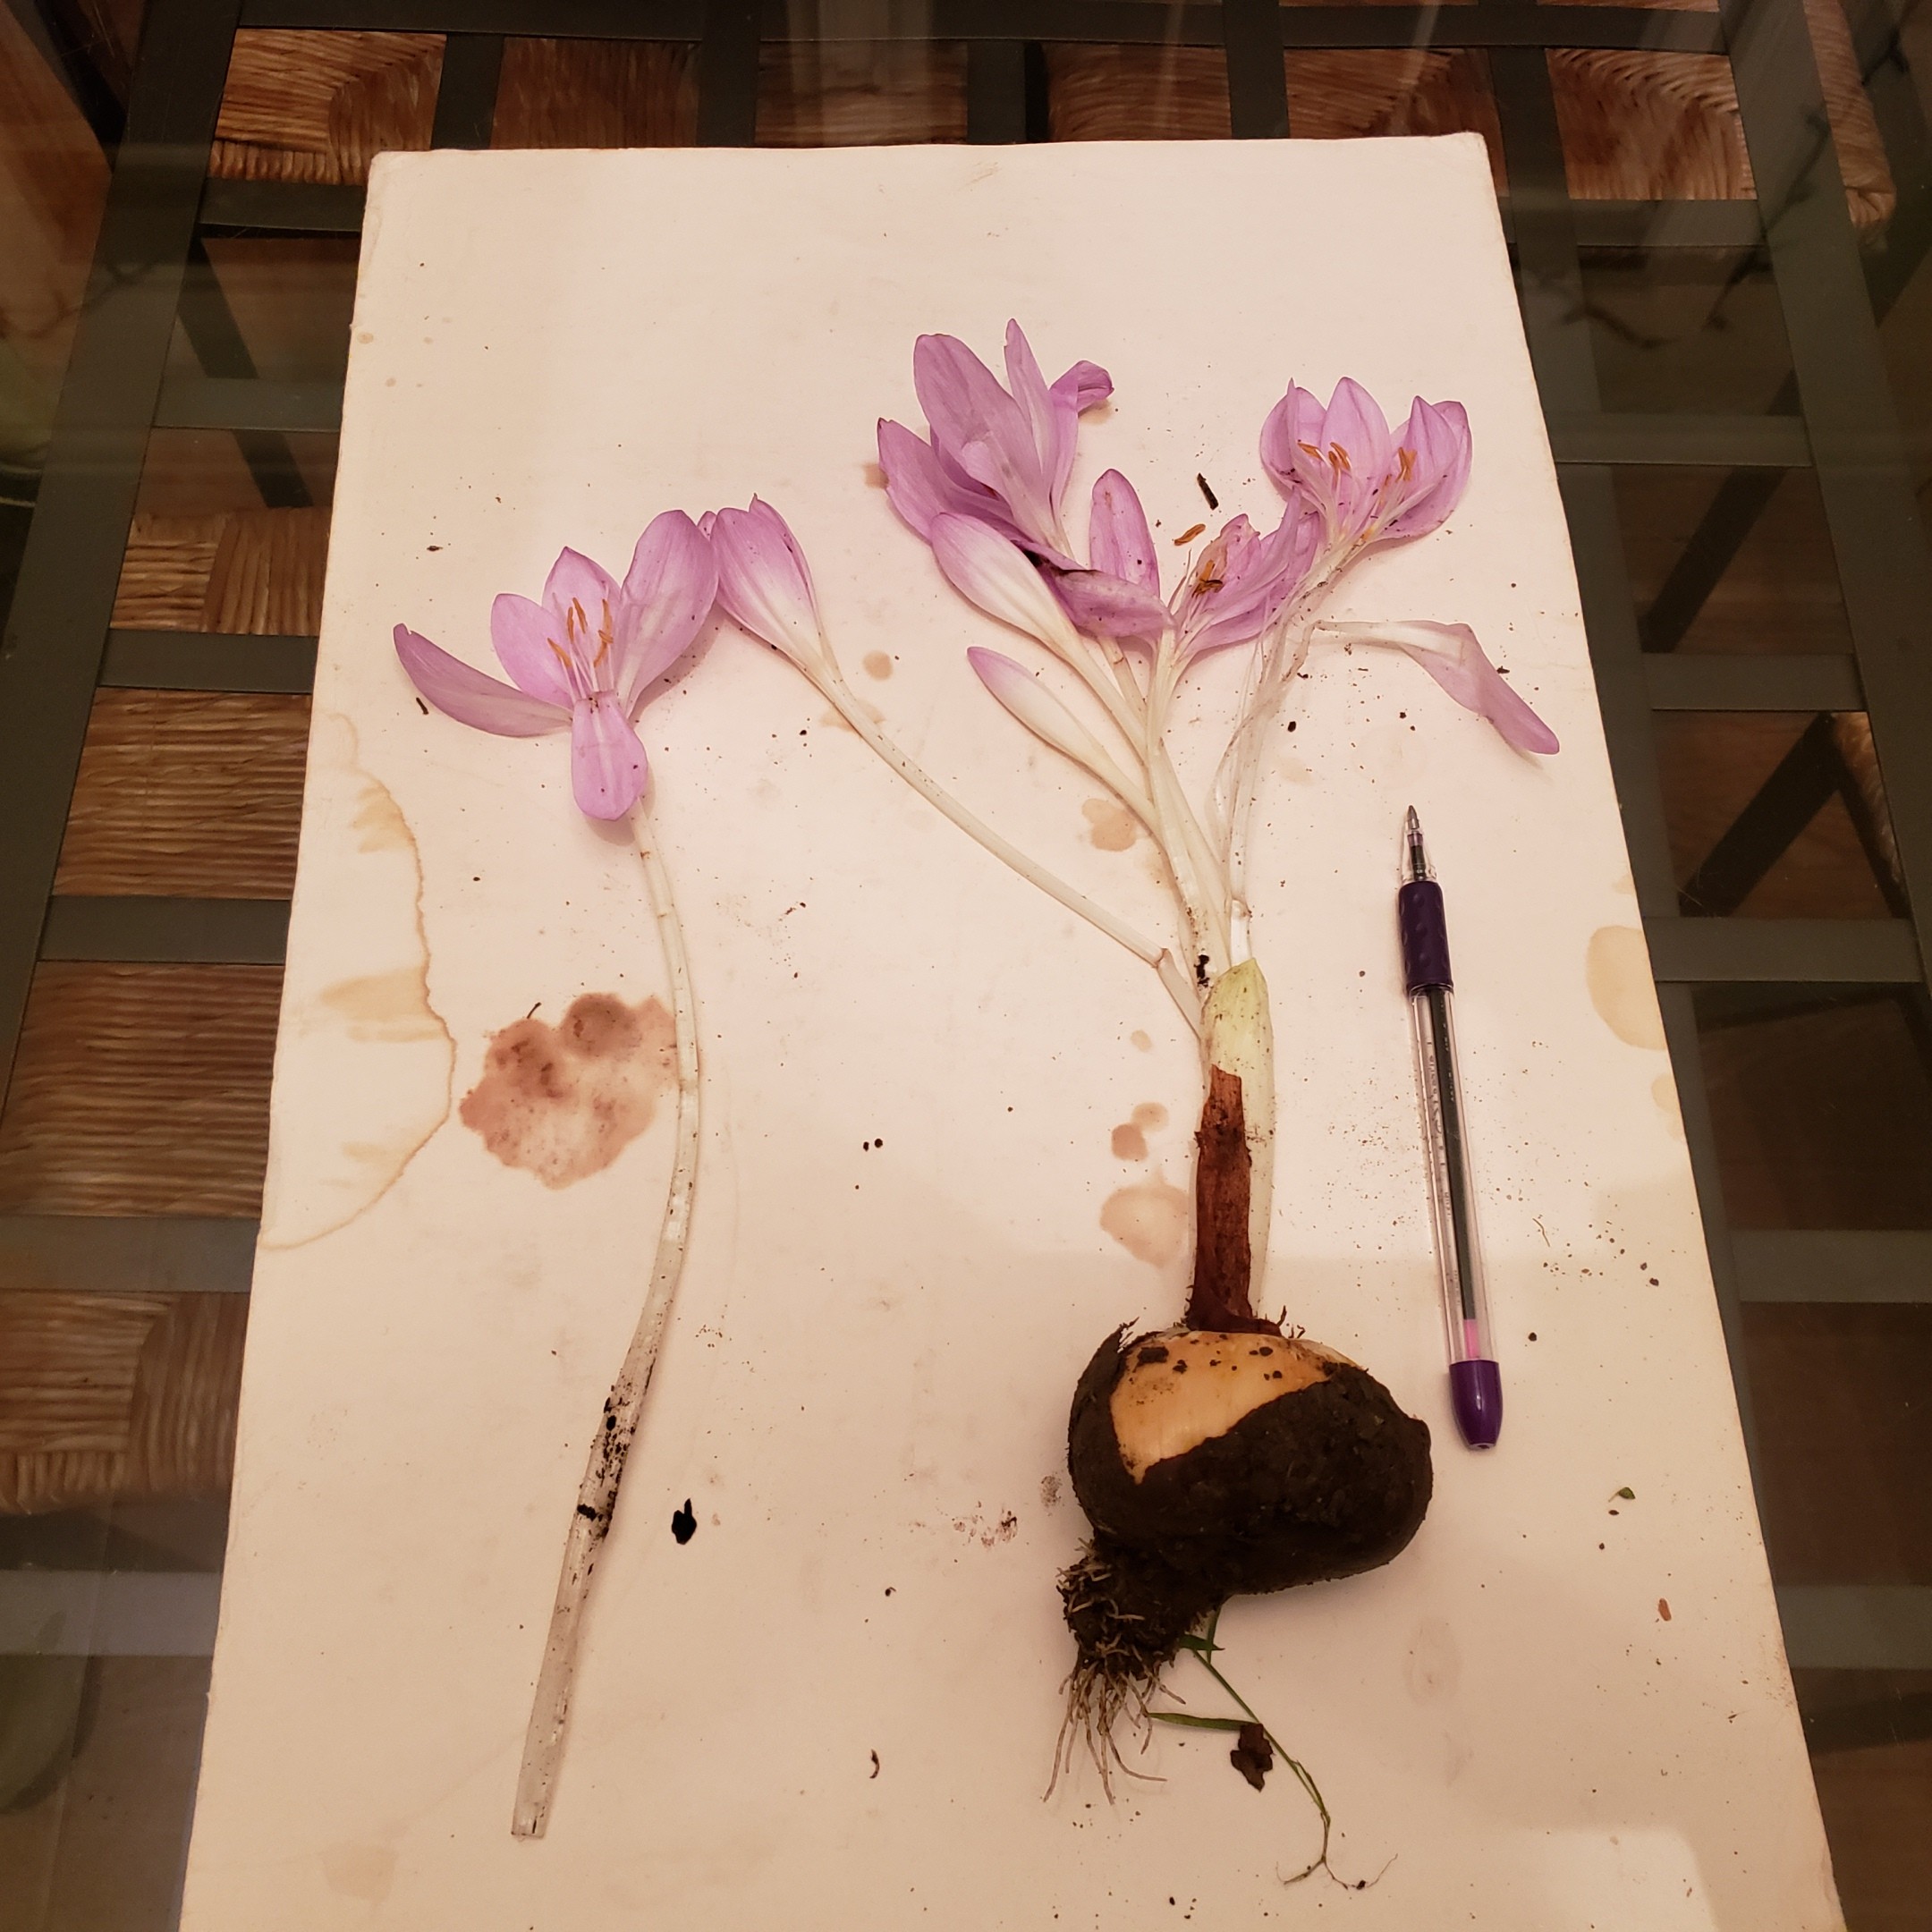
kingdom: Plantae
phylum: Tracheophyta
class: Liliopsida
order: Liliales
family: Colchicaceae
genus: Colchicum
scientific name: Colchicum speciosum
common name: autumn-crocus
